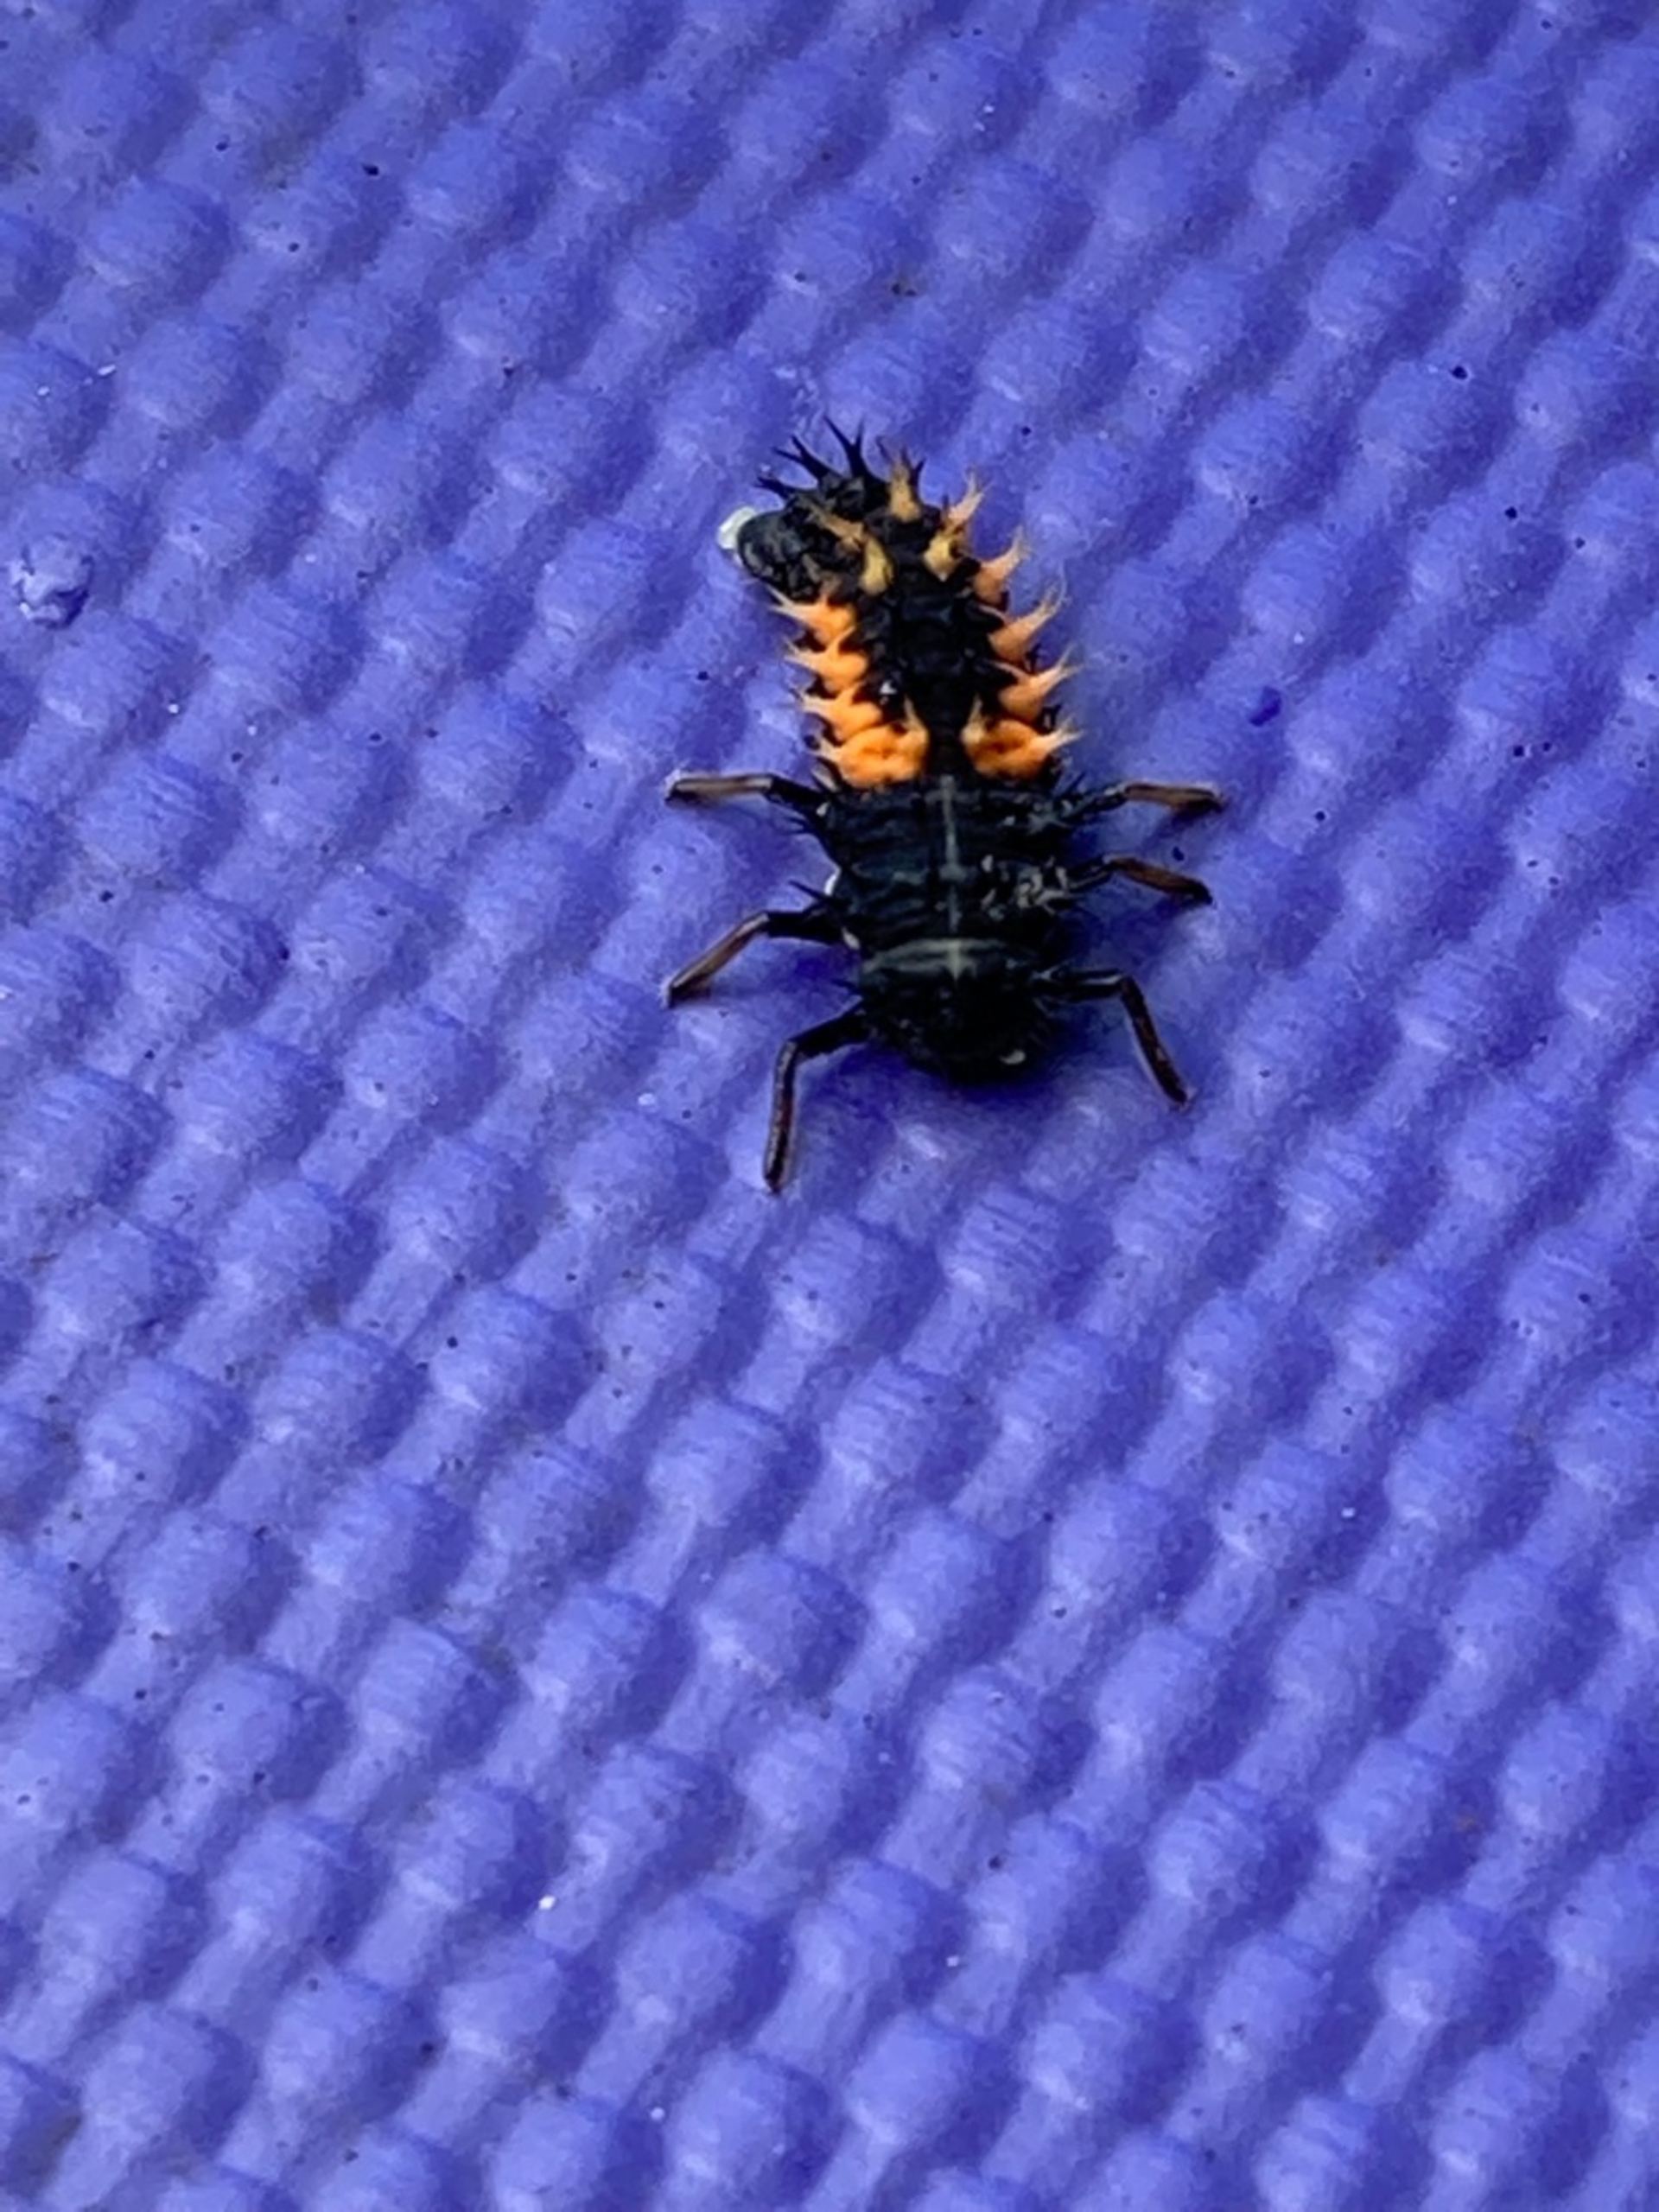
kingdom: Animalia
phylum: Arthropoda
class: Insecta
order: Coleoptera
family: Coccinellidae
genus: Harmonia
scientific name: Harmonia axyridis
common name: Harlekinmariehøne
